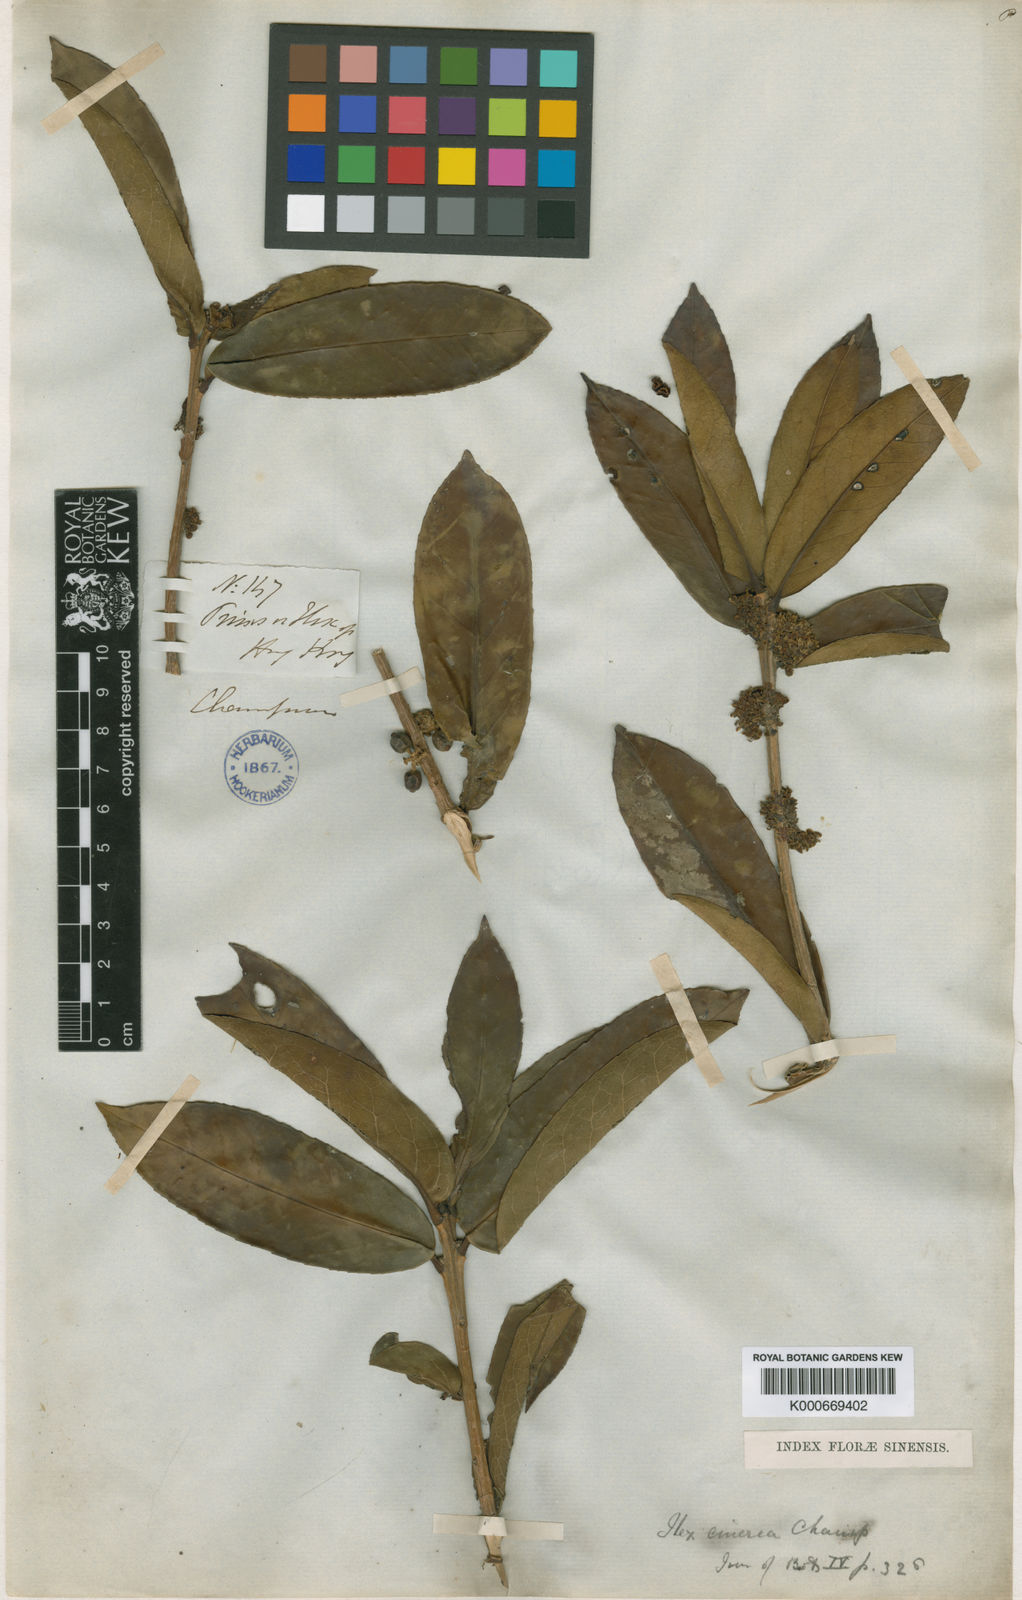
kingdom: Plantae
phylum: Tracheophyta
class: Magnoliopsida
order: Aquifoliales
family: Aquifoliaceae
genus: Ilex
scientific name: Ilex cinerea
